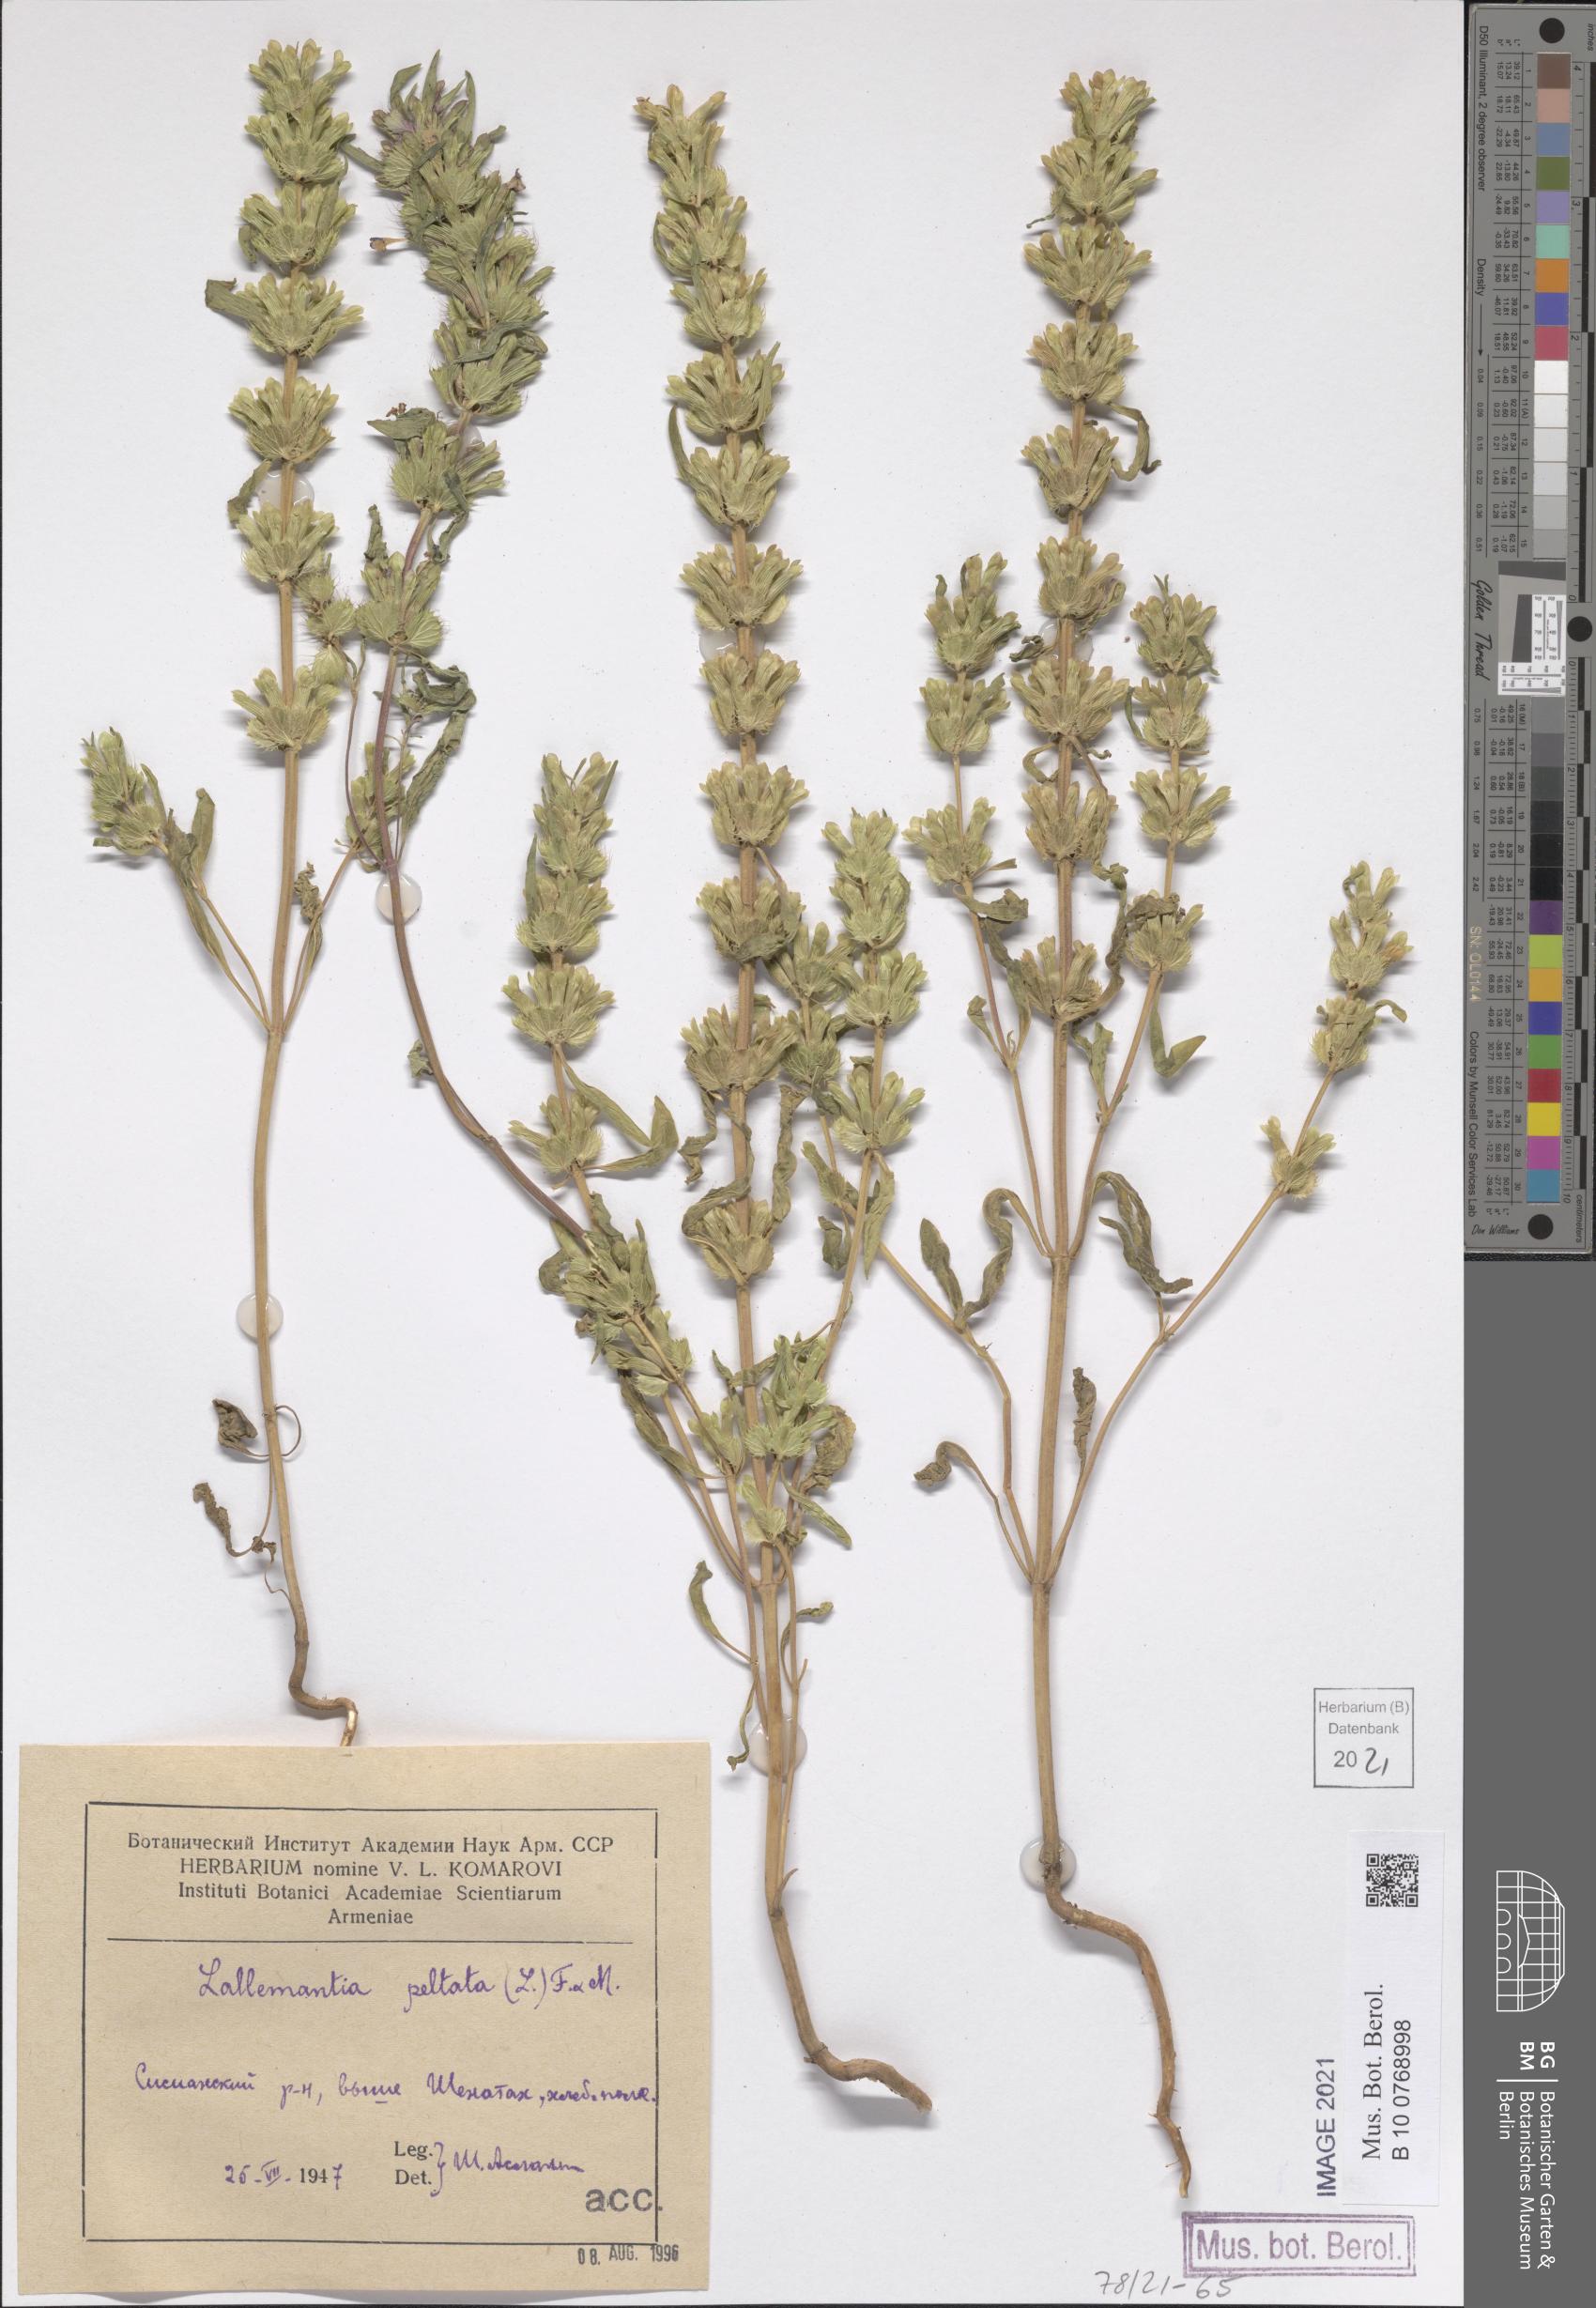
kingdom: Plantae
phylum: Tracheophyta
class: Magnoliopsida
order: Lamiales
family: Lamiaceae
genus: Lallemantia
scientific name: Lallemantia peltata
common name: Lion's heart
